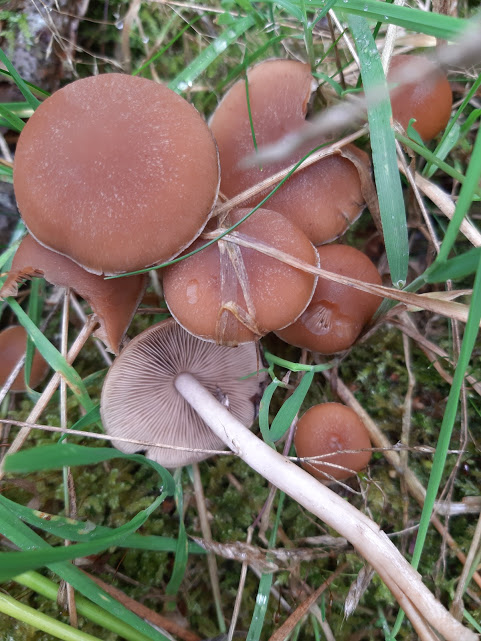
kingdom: Fungi
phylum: Basidiomycota
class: Agaricomycetes
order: Agaricales
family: Psathyrellaceae
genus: Psathyrella
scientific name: Psathyrella
